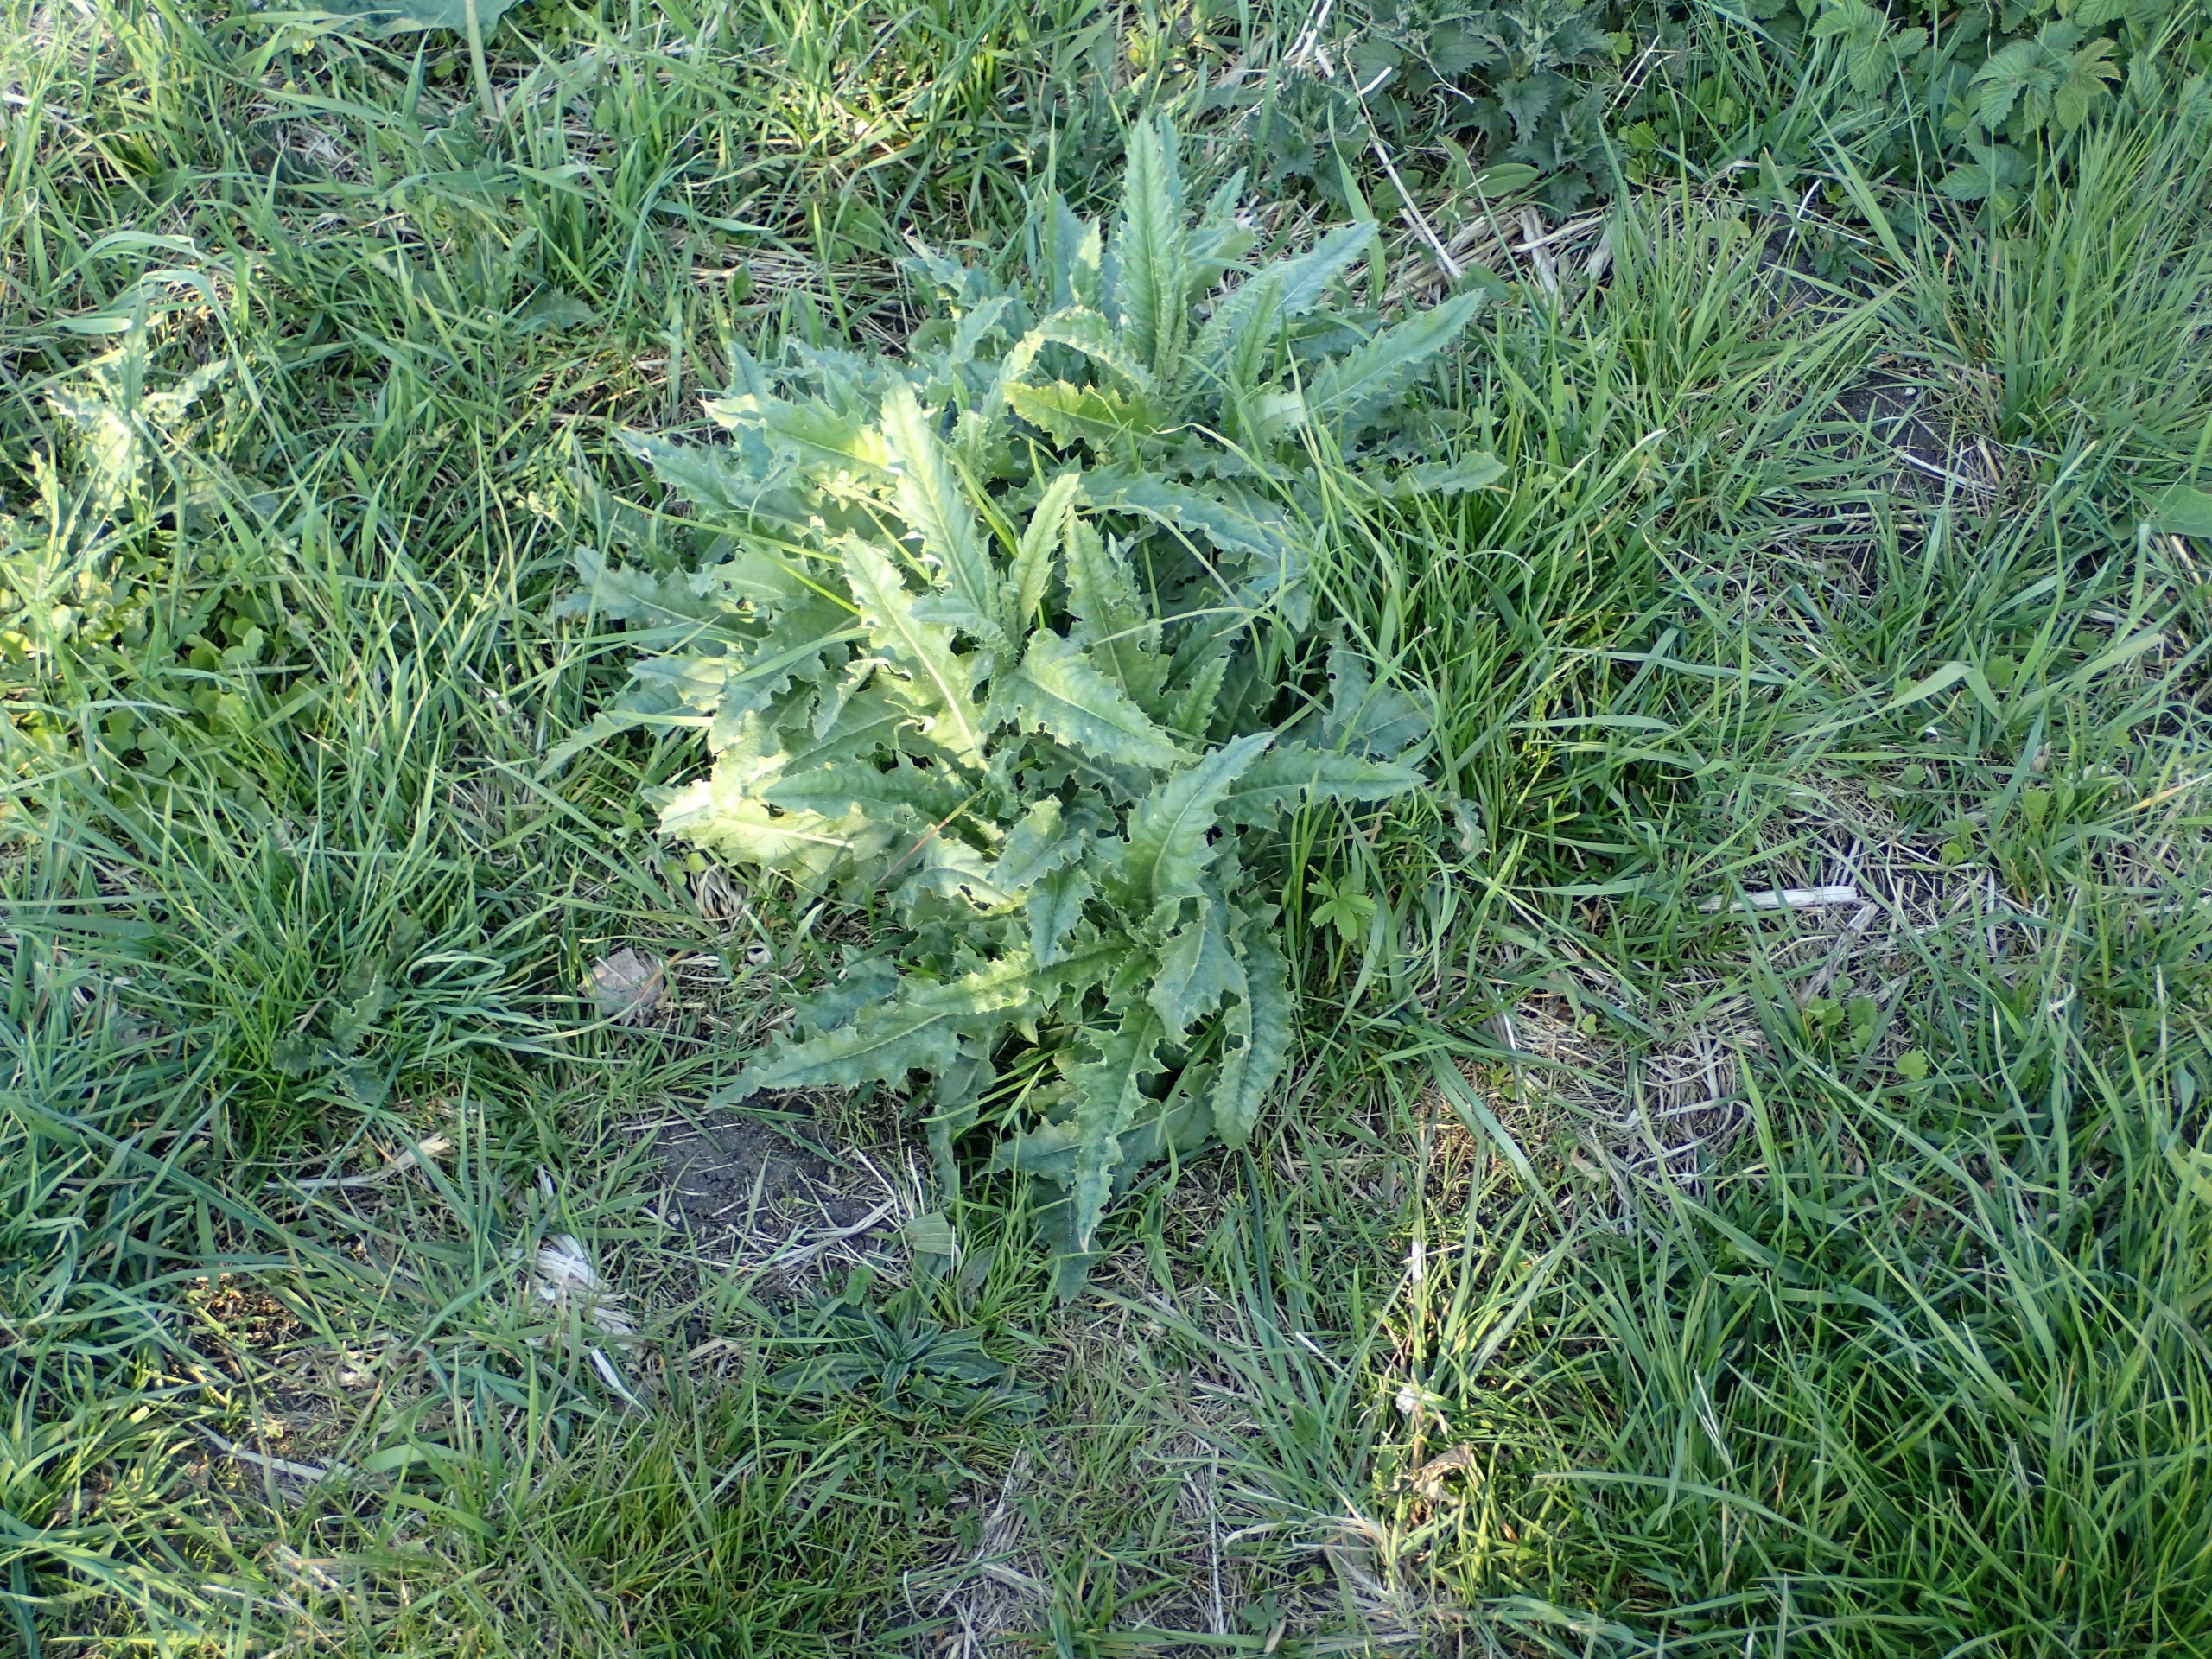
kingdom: Plantae
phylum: Tracheophyta
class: Magnoliopsida
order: Asterales
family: Asteraceae
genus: Cirsium
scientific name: Cirsium arvense
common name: Ager-tidsel
